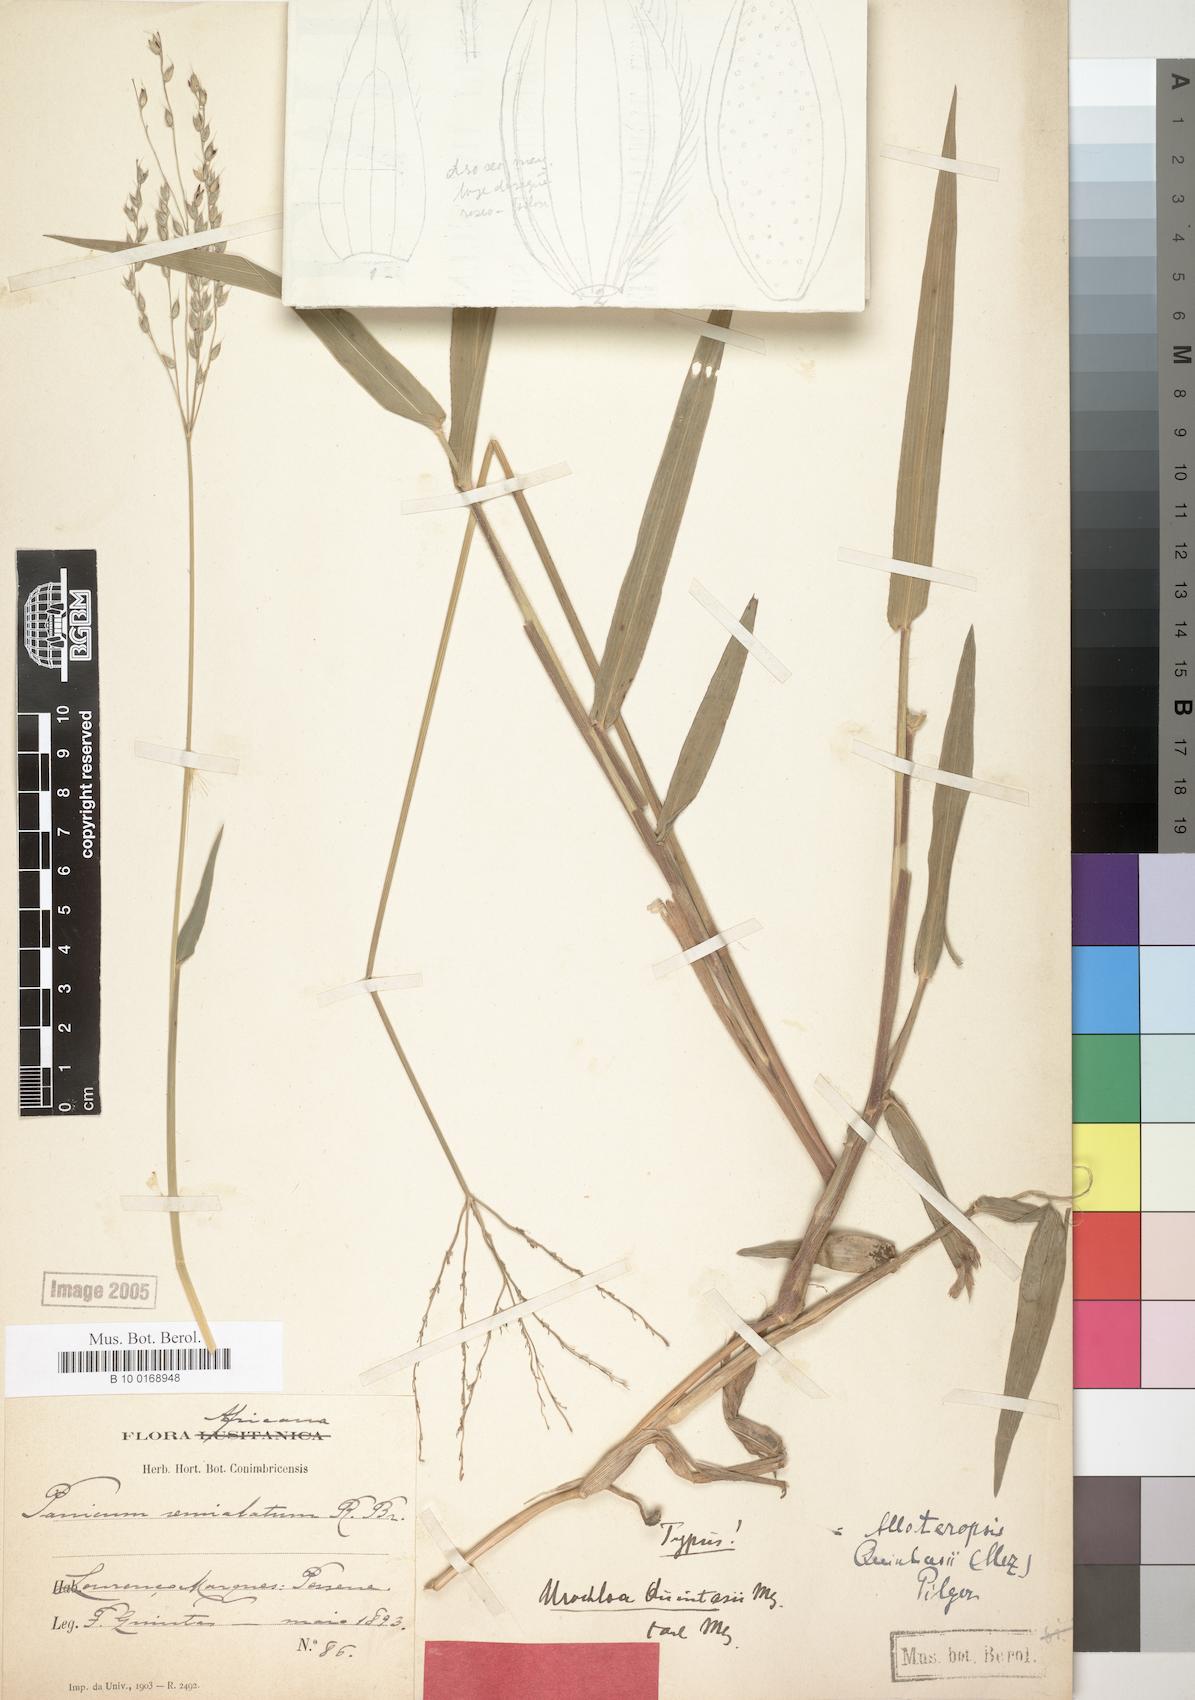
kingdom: Plantae
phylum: Tracheophyta
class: Liliopsida
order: Poales
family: Poaceae
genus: Alloteropsis
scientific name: Alloteropsis cimicina
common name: Summergrass
